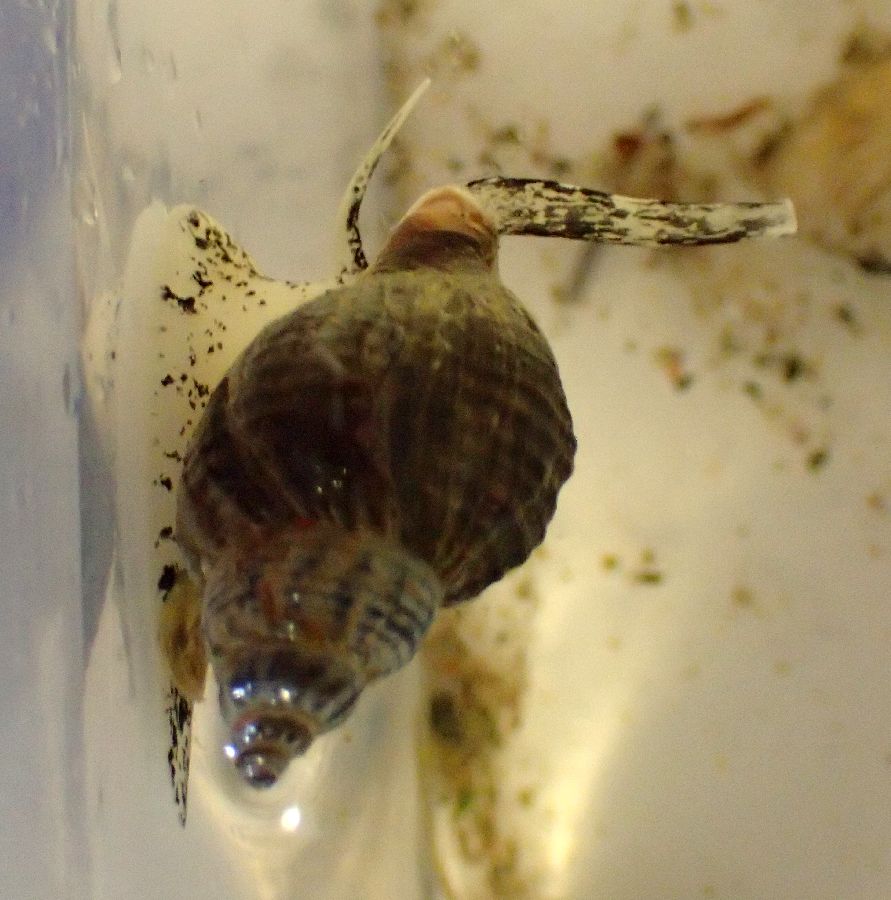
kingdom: Animalia
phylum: Mollusca
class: Gastropoda
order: Neogastropoda
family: Buccinidae
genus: Buccinum
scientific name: Buccinum undatum
